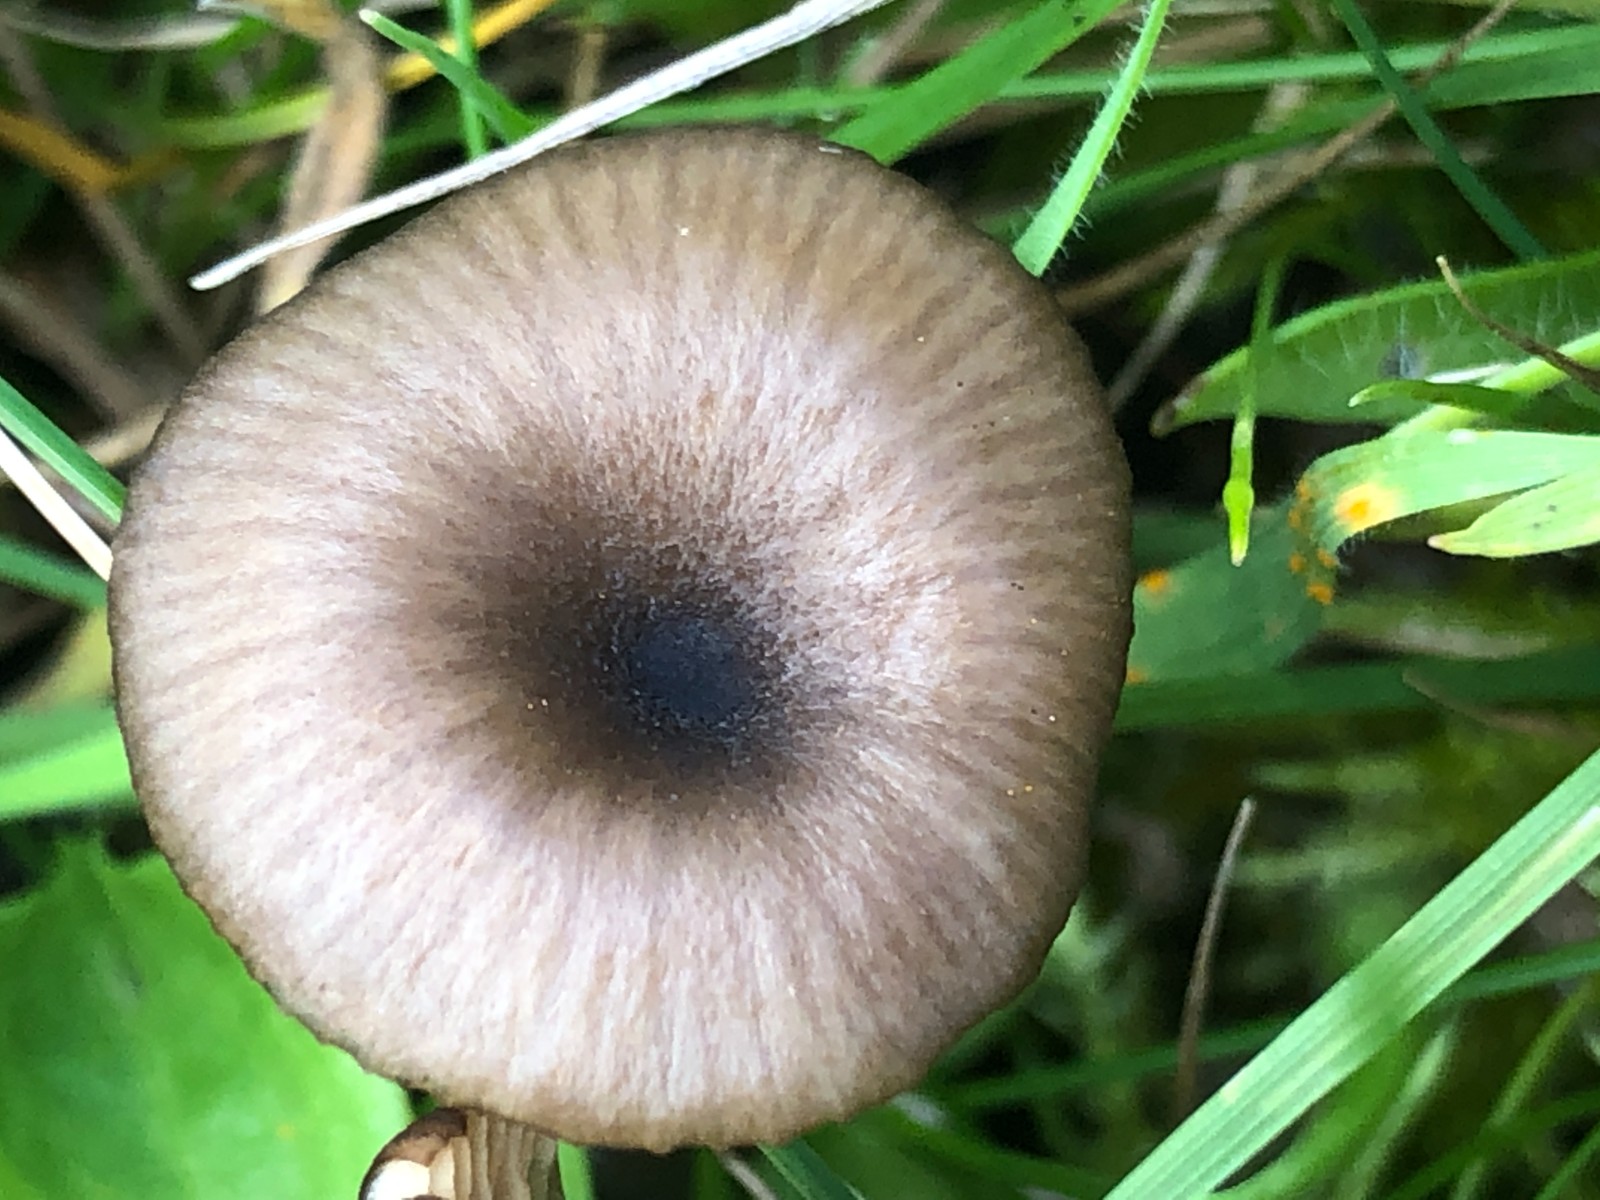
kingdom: Fungi
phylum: Basidiomycota
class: Agaricomycetes
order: Agaricales
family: Entolomataceae
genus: Entoloma
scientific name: Entoloma
